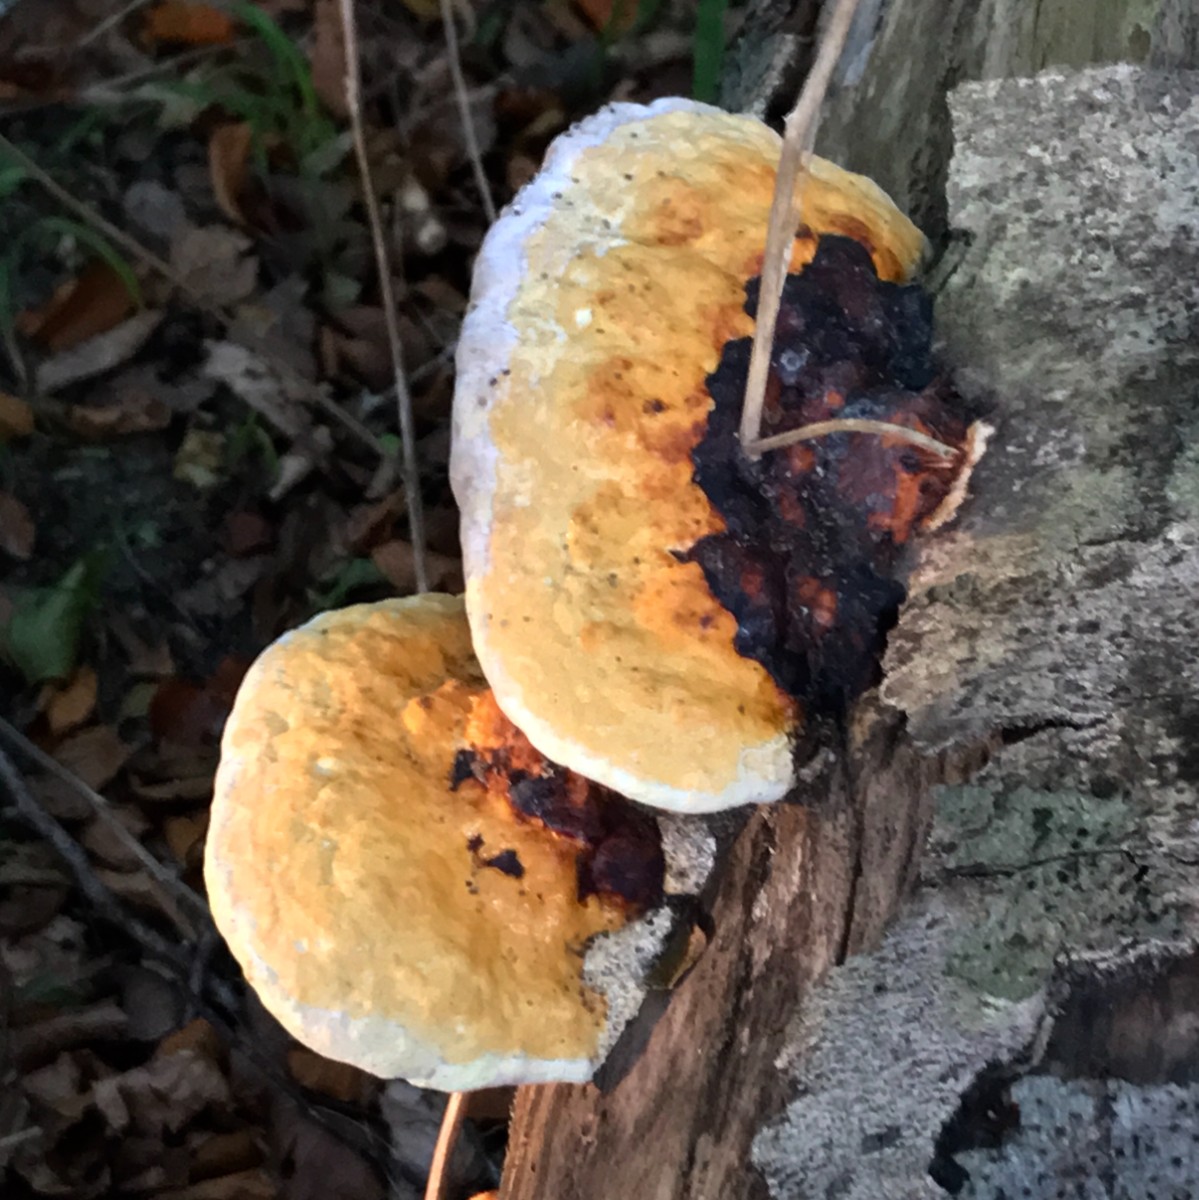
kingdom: Fungi
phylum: Basidiomycota
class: Agaricomycetes
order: Polyporales
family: Fomitopsidaceae
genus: Fomitopsis
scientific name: Fomitopsis pinicola
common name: randbæltet hovporesvamp
